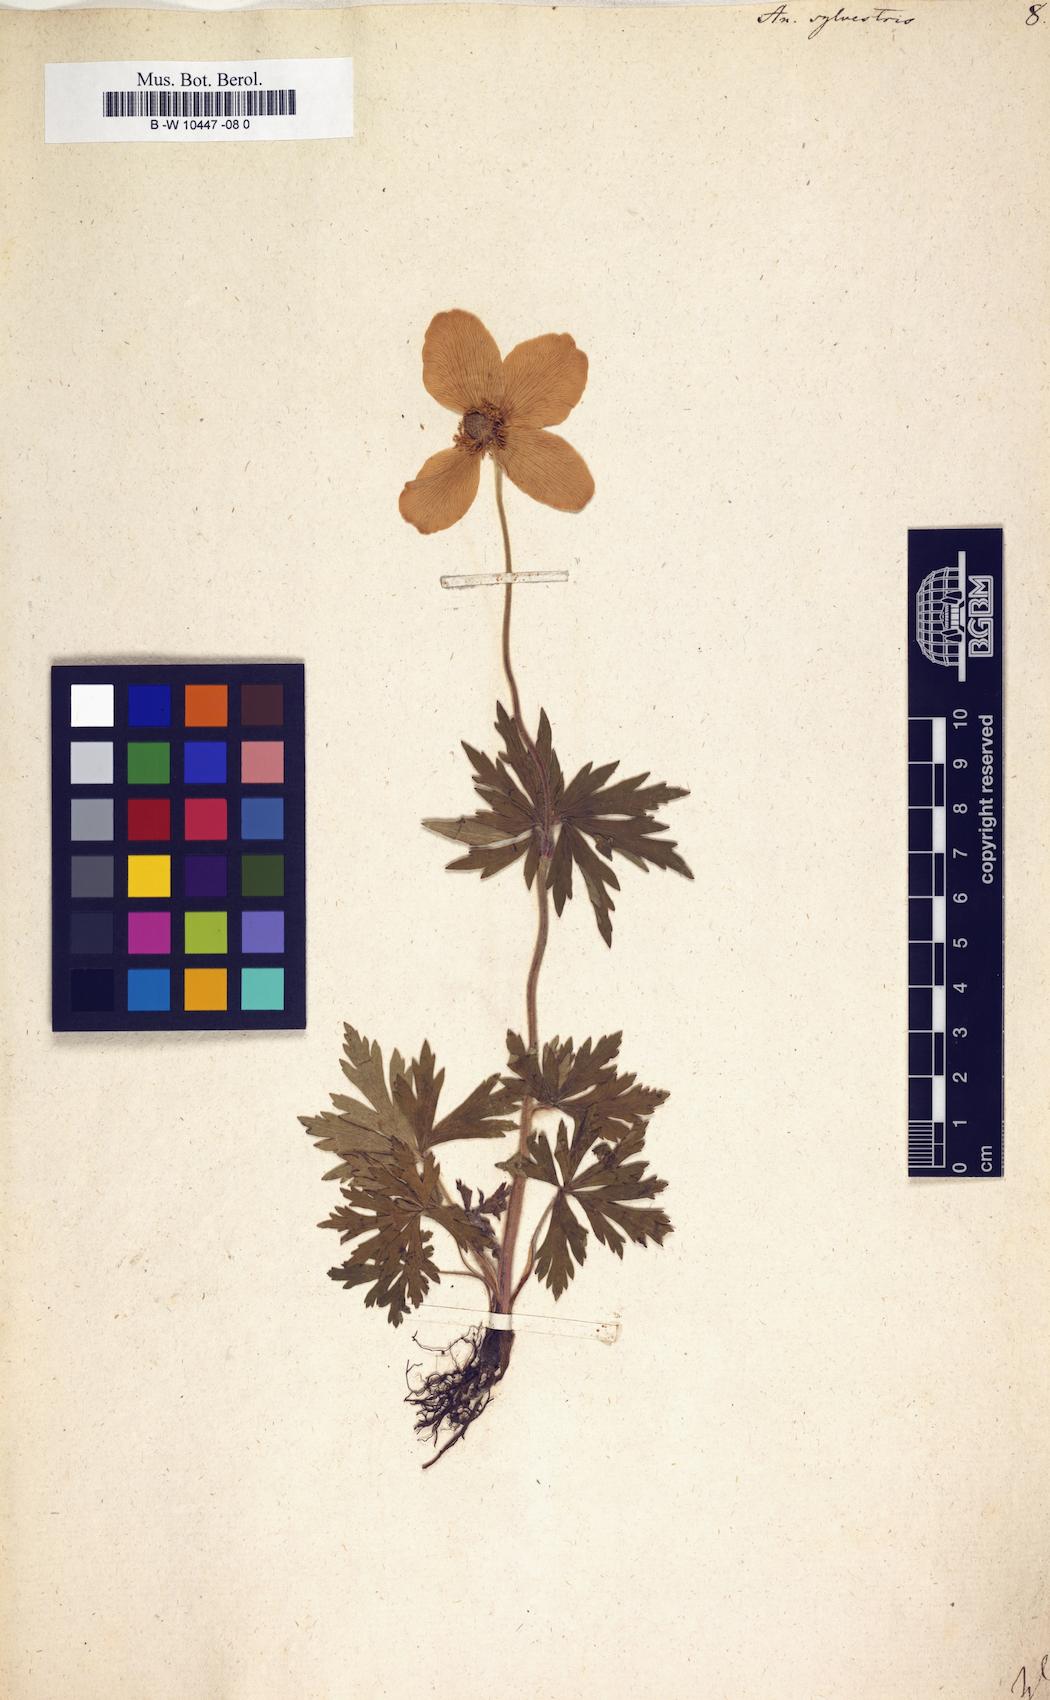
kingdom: Plantae
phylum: Tracheophyta
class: Magnoliopsida
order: Ranunculales
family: Ranunculaceae
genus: Anemone
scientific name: Anemone sylvestris
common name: Snowdrop anemone
